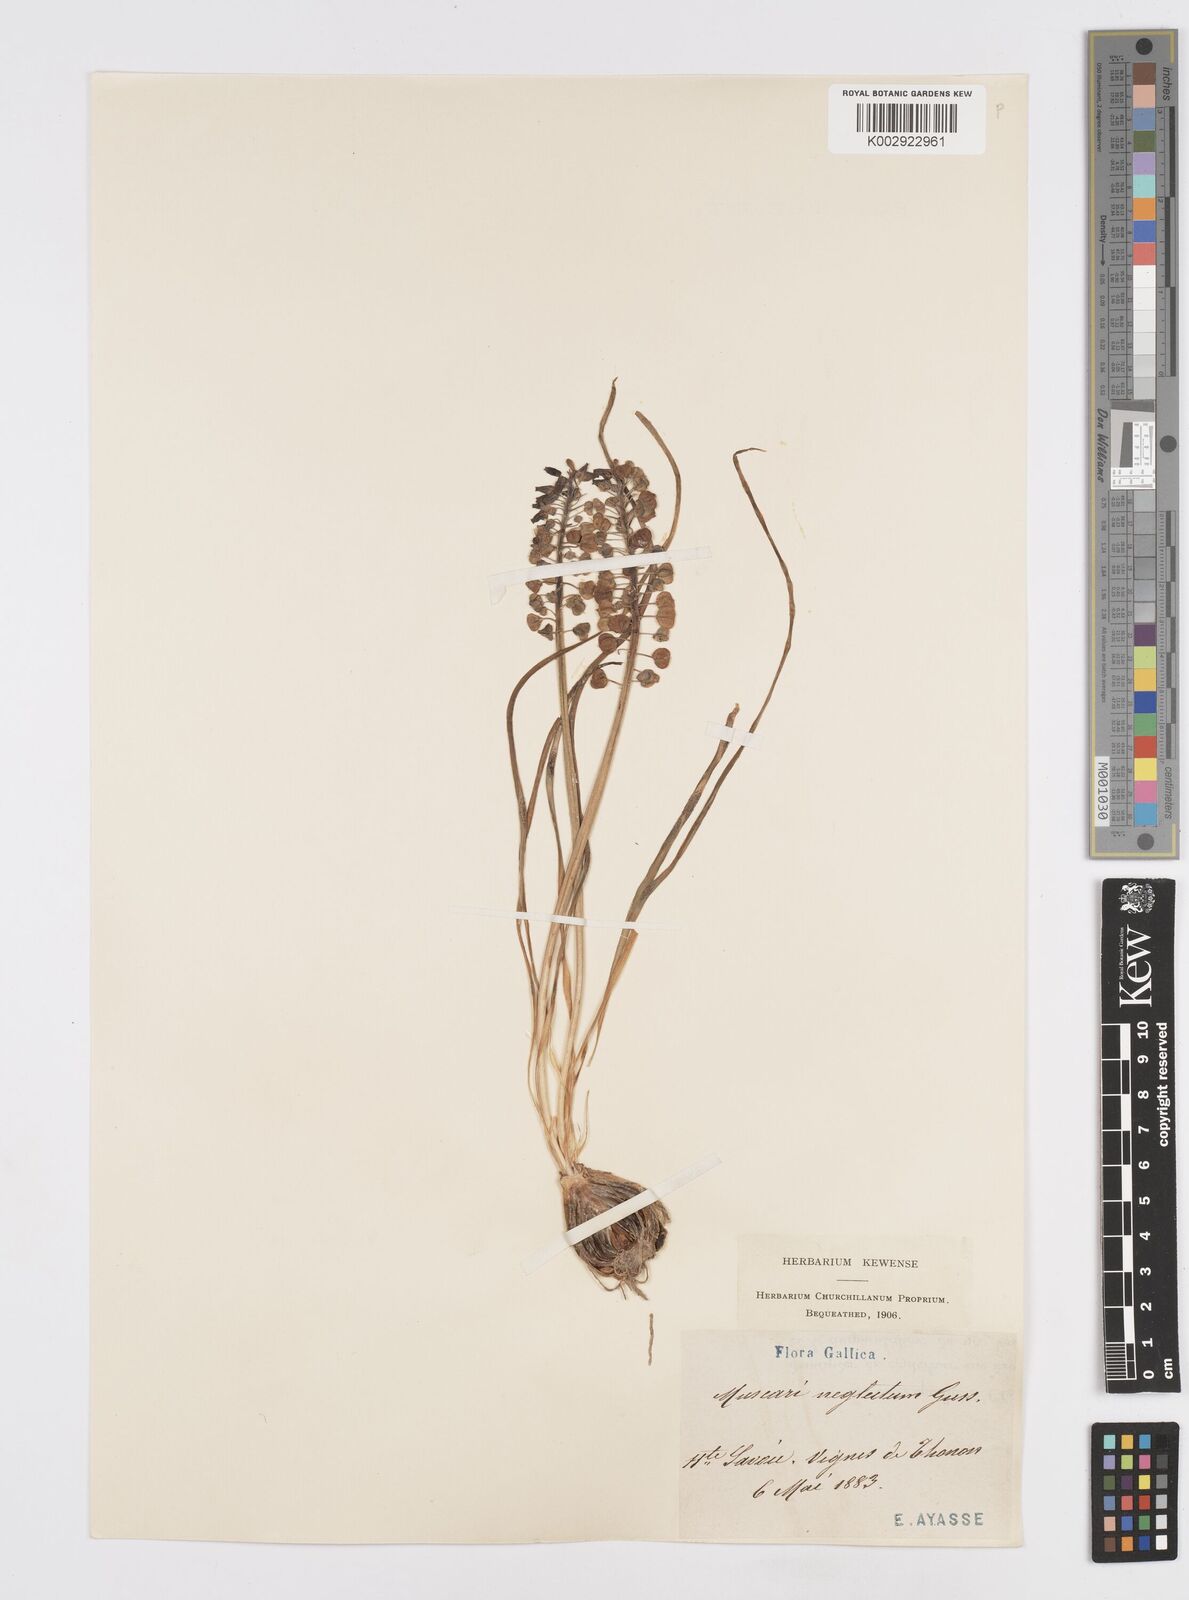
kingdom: Plantae
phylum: Tracheophyta
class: Liliopsida
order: Asparagales
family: Asparagaceae
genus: Muscari
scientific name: Muscari neglectum
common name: Grape-hyacinth
